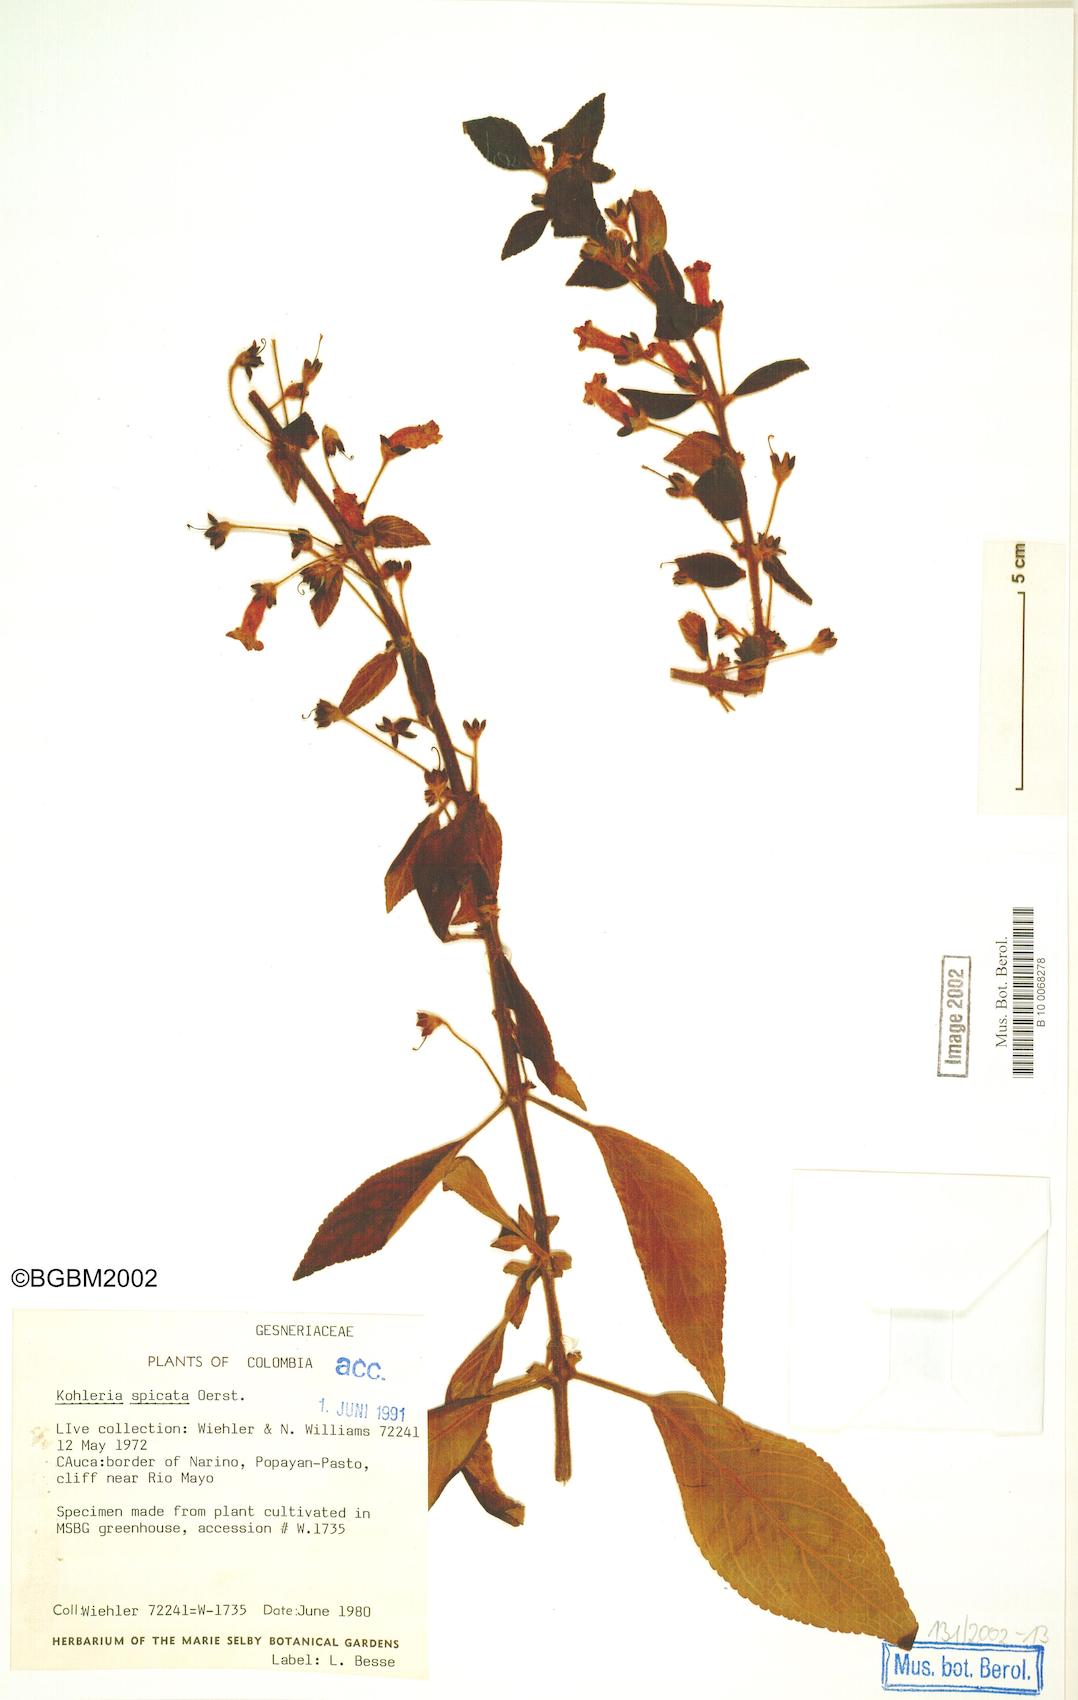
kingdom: Plantae
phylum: Tracheophyta
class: Magnoliopsida
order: Lamiales
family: Gesneriaceae
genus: Kohleria
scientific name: Kohleria spicata
